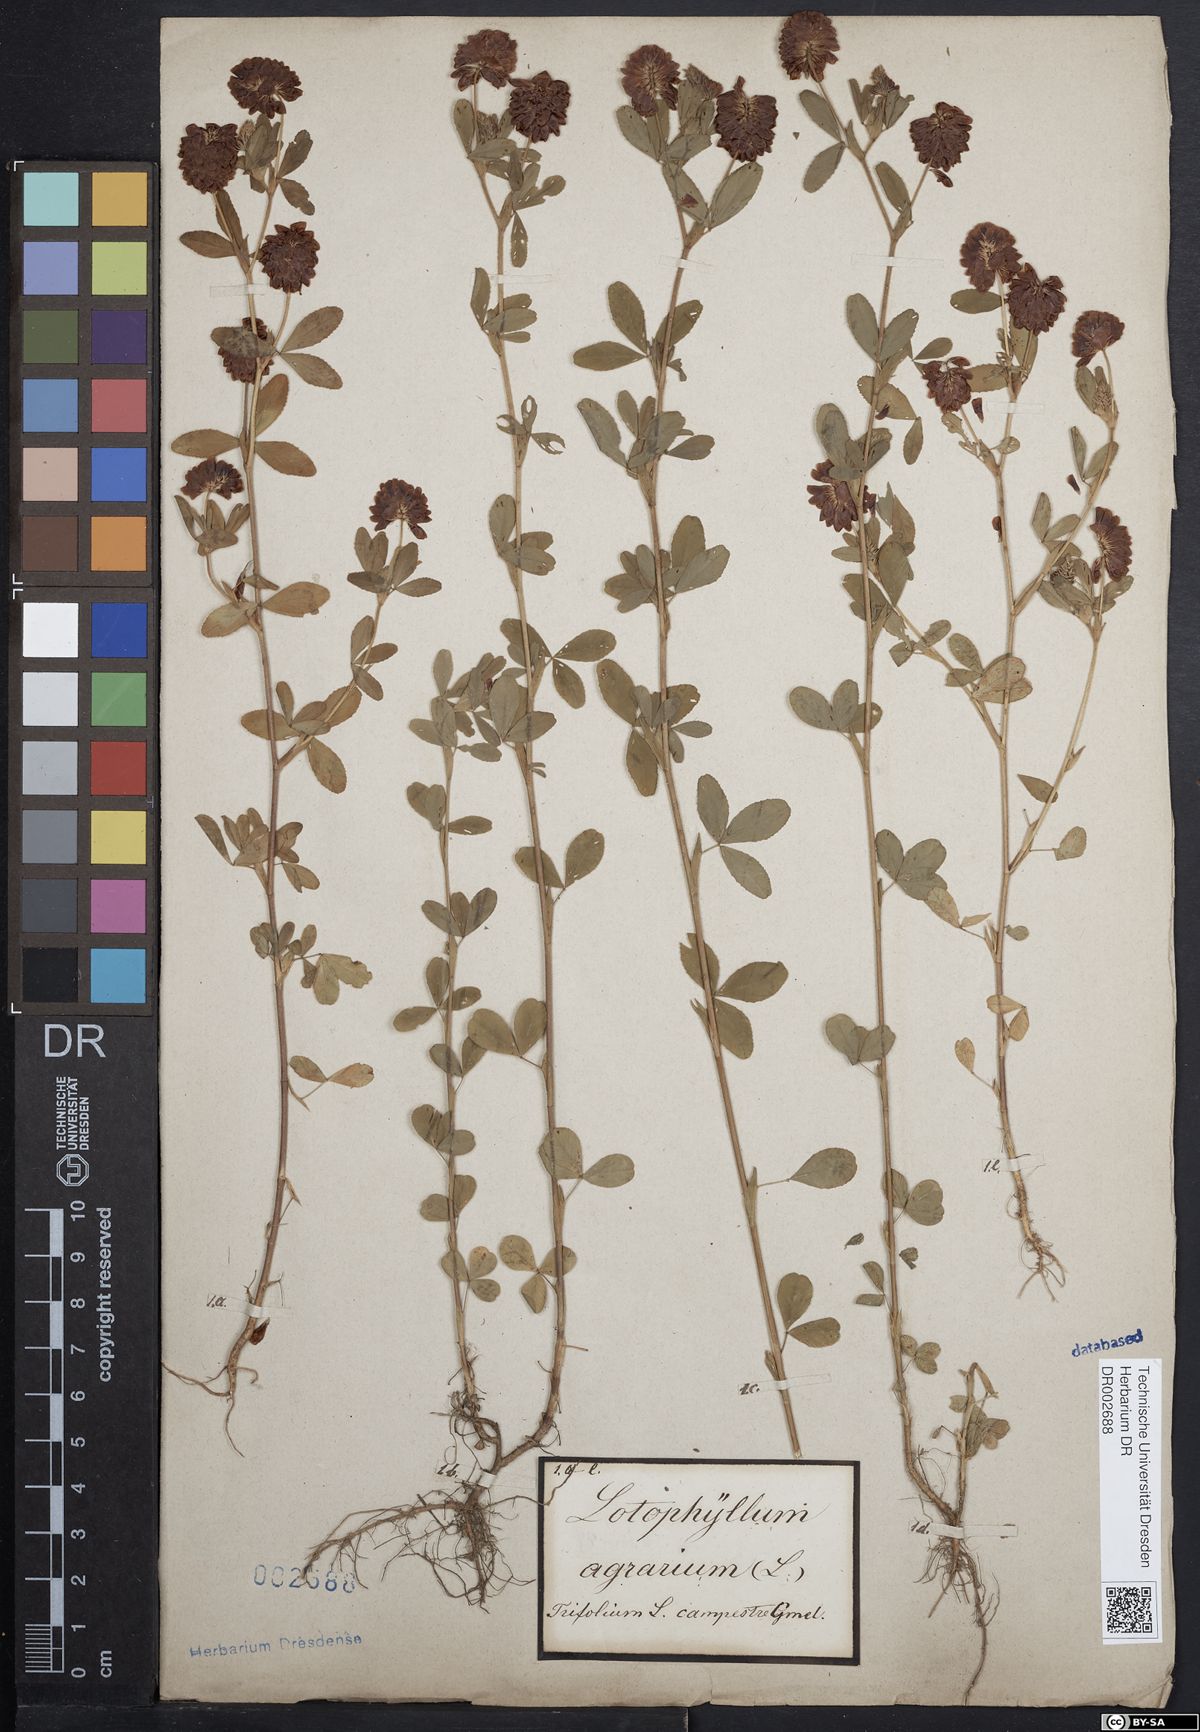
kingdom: Plantae
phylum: Tracheophyta
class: Magnoliopsida
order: Fabales
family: Fabaceae
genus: Trifolium
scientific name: Trifolium aureum
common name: Golden clover
